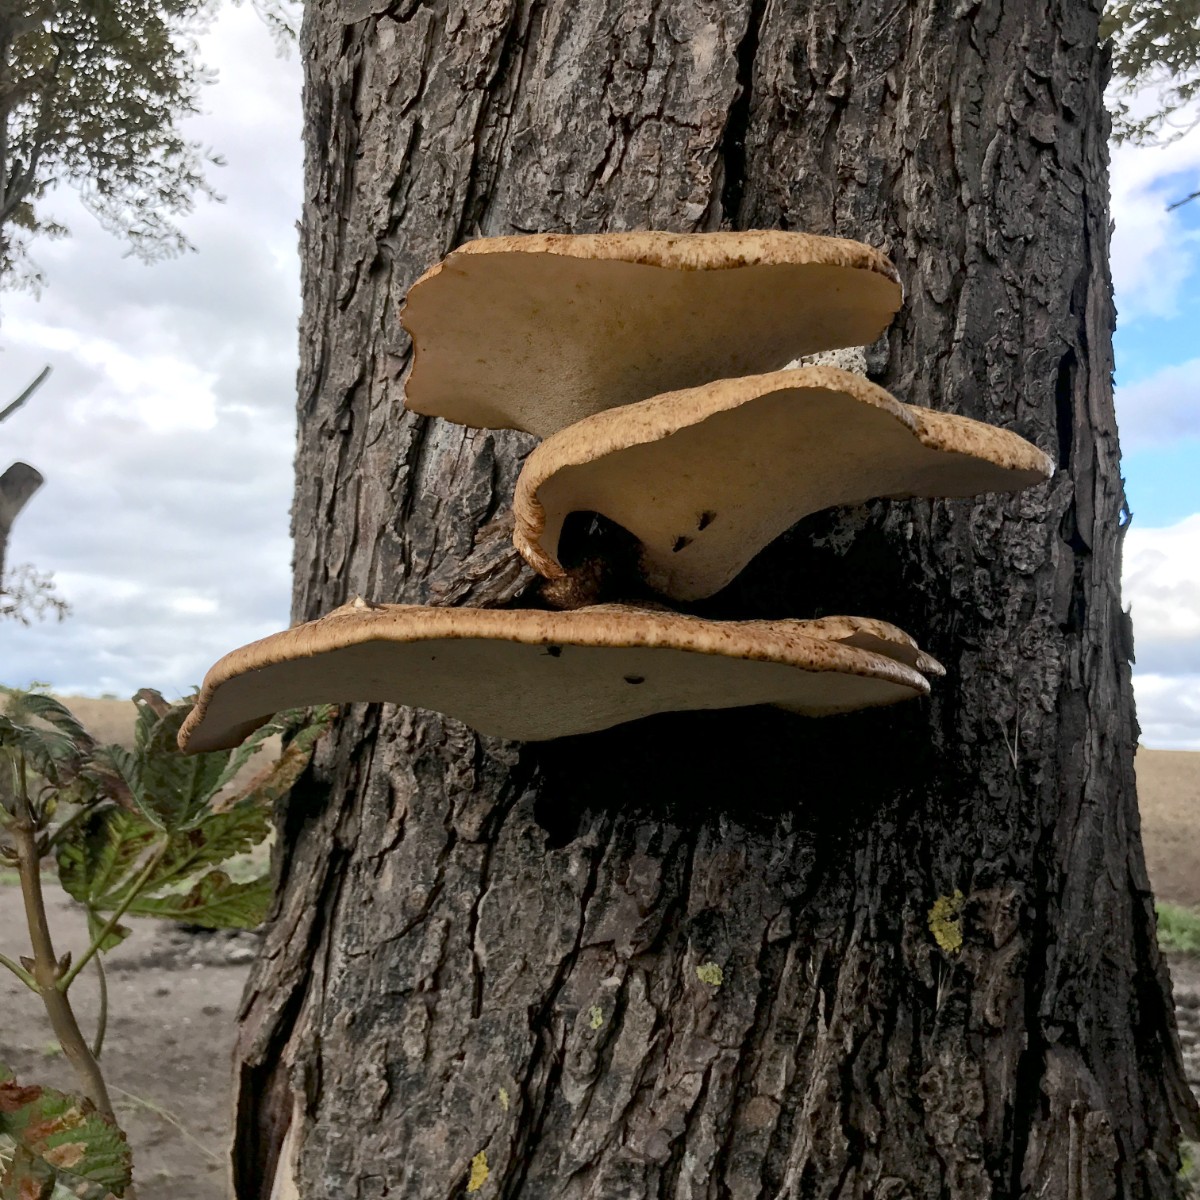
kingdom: Fungi
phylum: Basidiomycota
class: Agaricomycetes
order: Polyporales
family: Polyporaceae
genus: Cerioporus
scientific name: Cerioporus squamosus
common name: skællet stilkporesvamp
